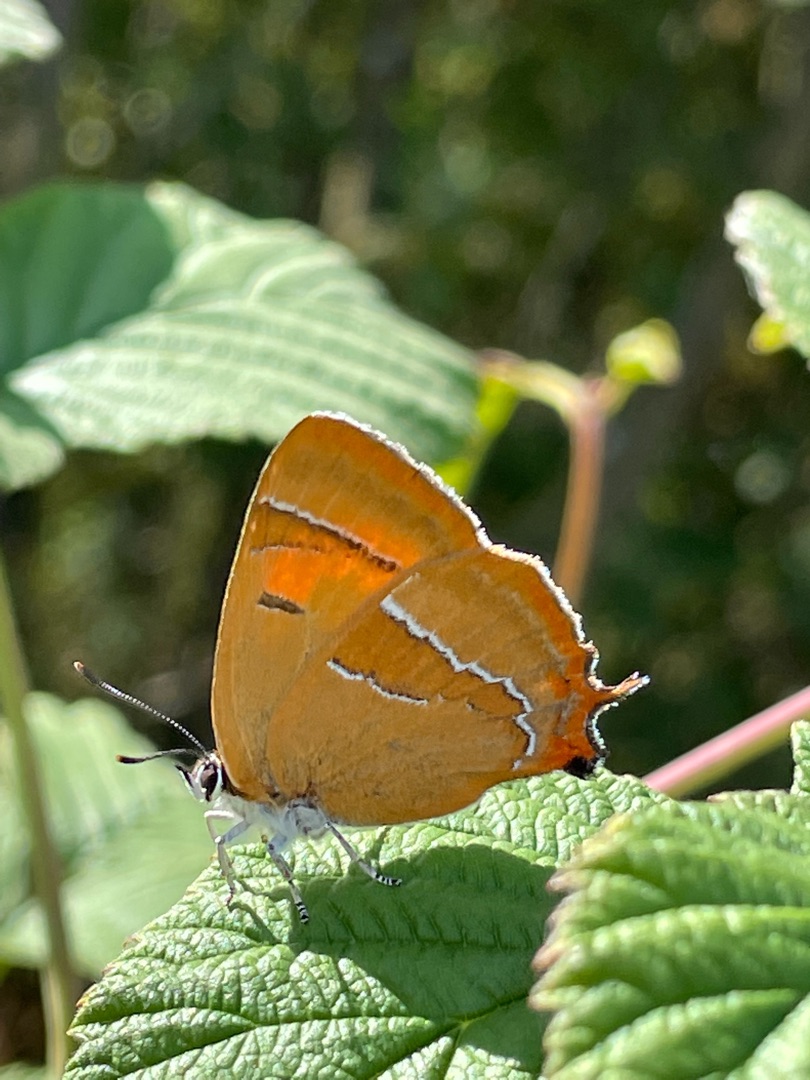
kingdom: Animalia
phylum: Arthropoda
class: Insecta
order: Lepidoptera
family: Lycaenidae
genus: Thecla
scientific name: Thecla betulae
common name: Guldhale
